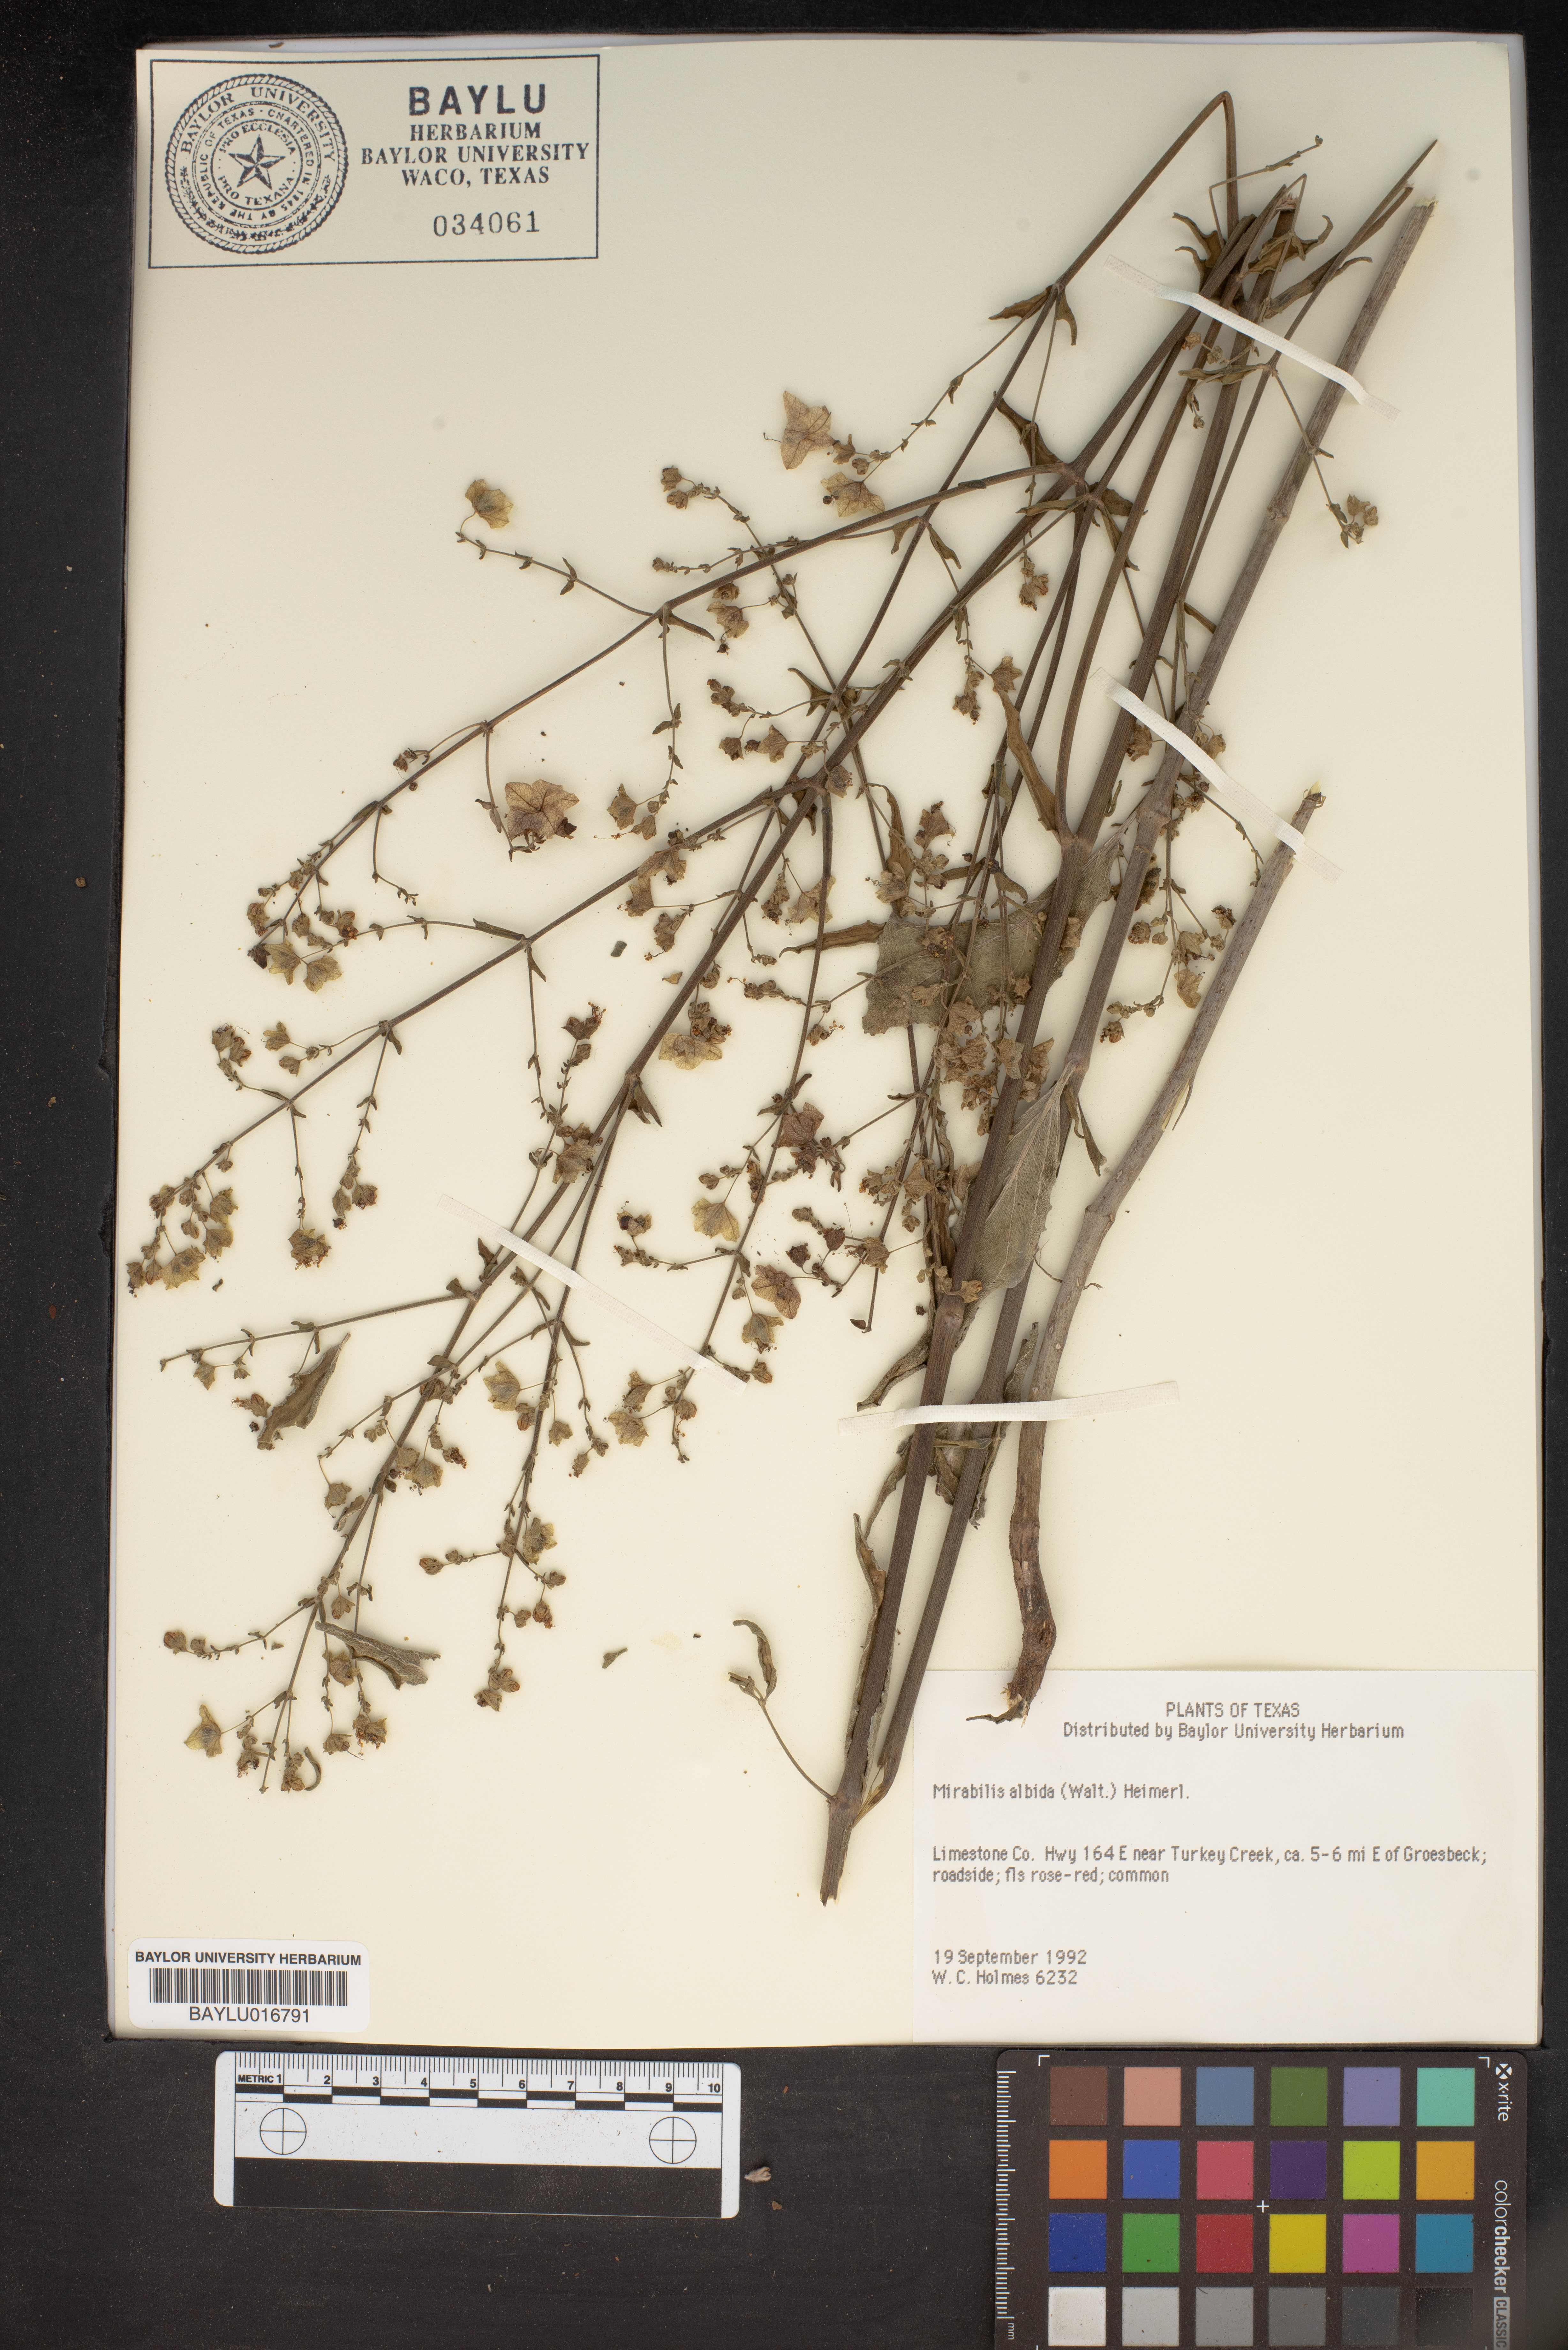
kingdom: Plantae
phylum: Tracheophyta
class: Magnoliopsida
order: Caryophyllales
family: Nyctaginaceae
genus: Mirabilis
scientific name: Mirabilis albida
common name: Hairy four-o'clock
